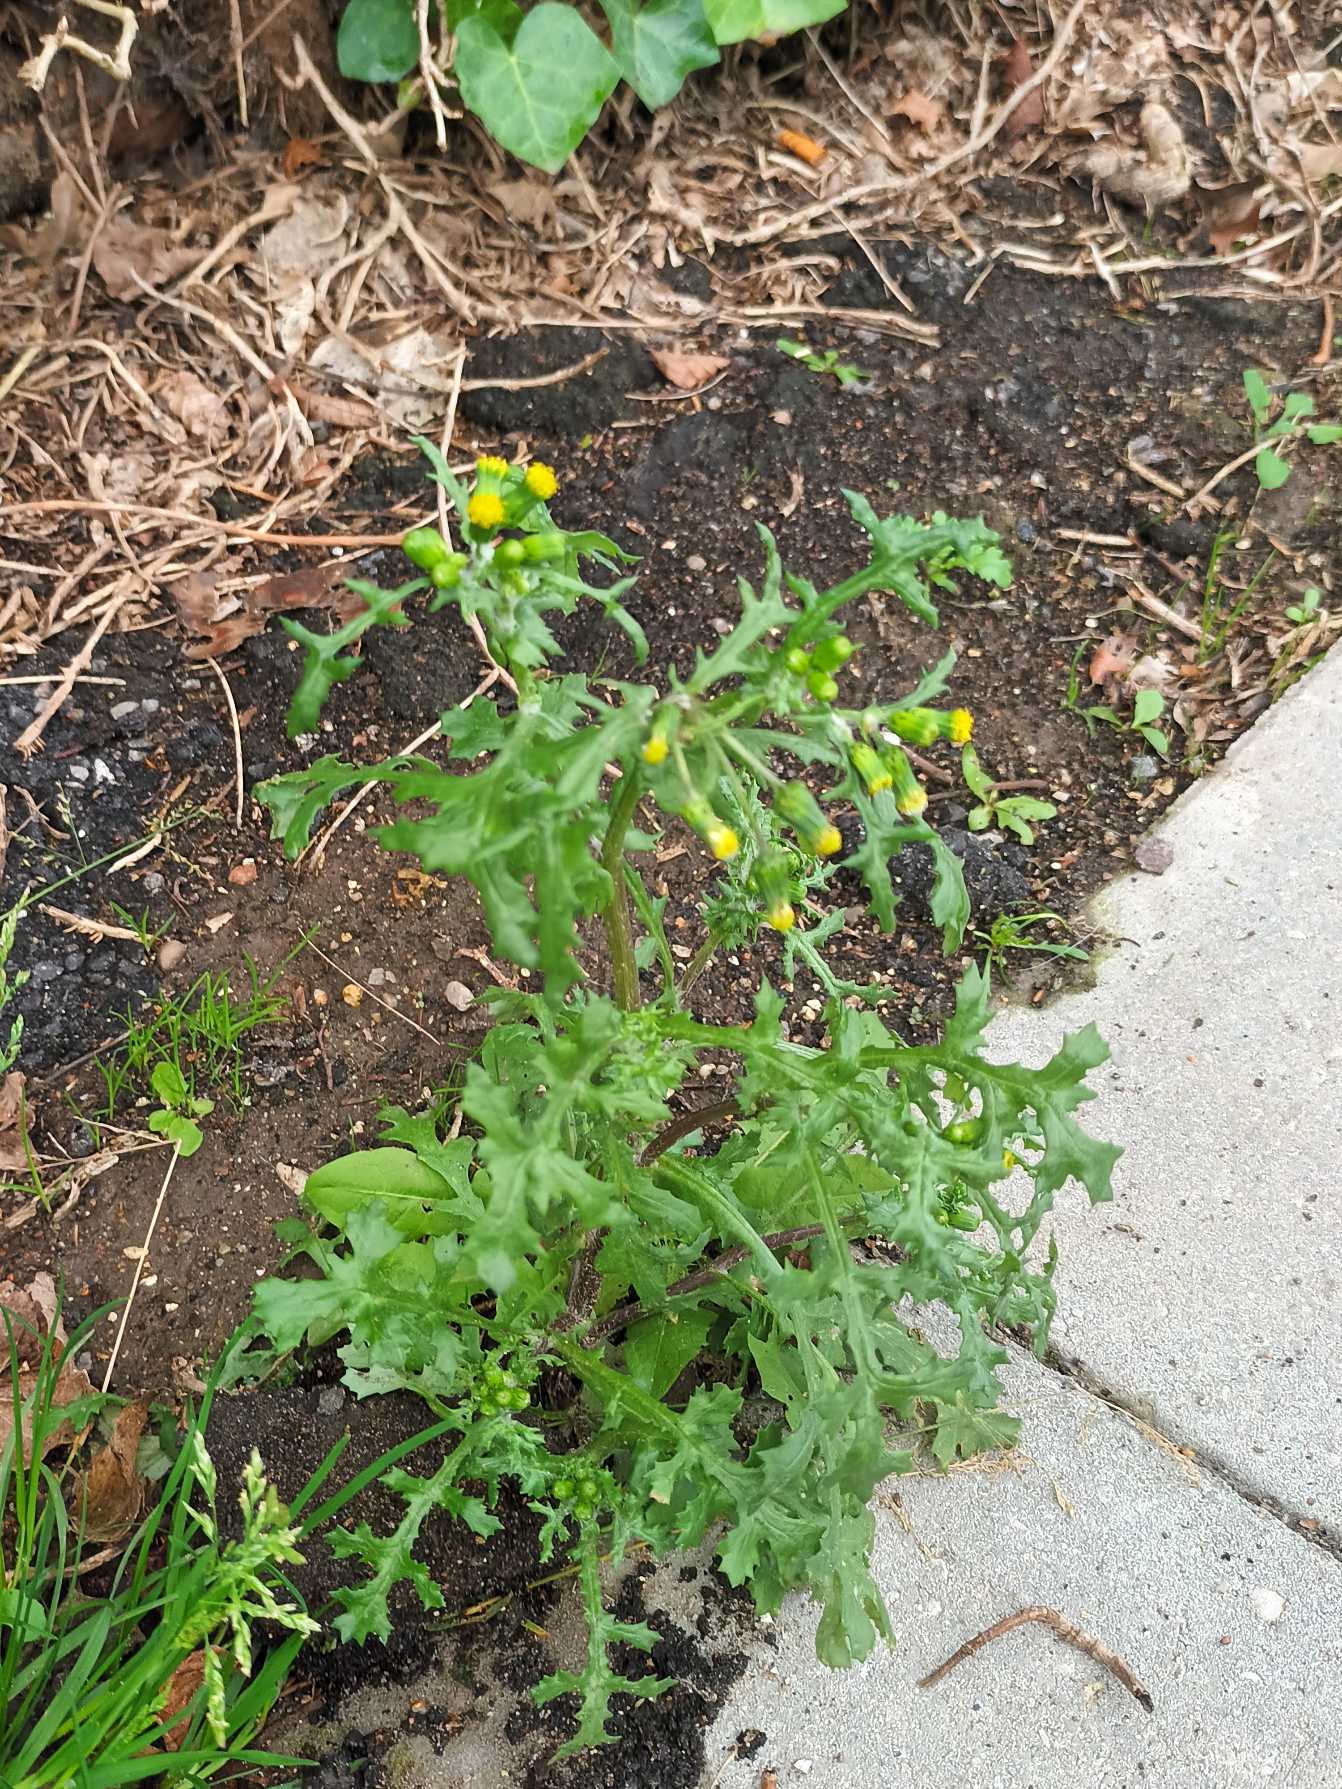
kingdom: Plantae
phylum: Tracheophyta
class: Magnoliopsida
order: Asterales
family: Asteraceae
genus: Senecio
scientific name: Senecio vulgaris
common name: Almindelig brandbæger
